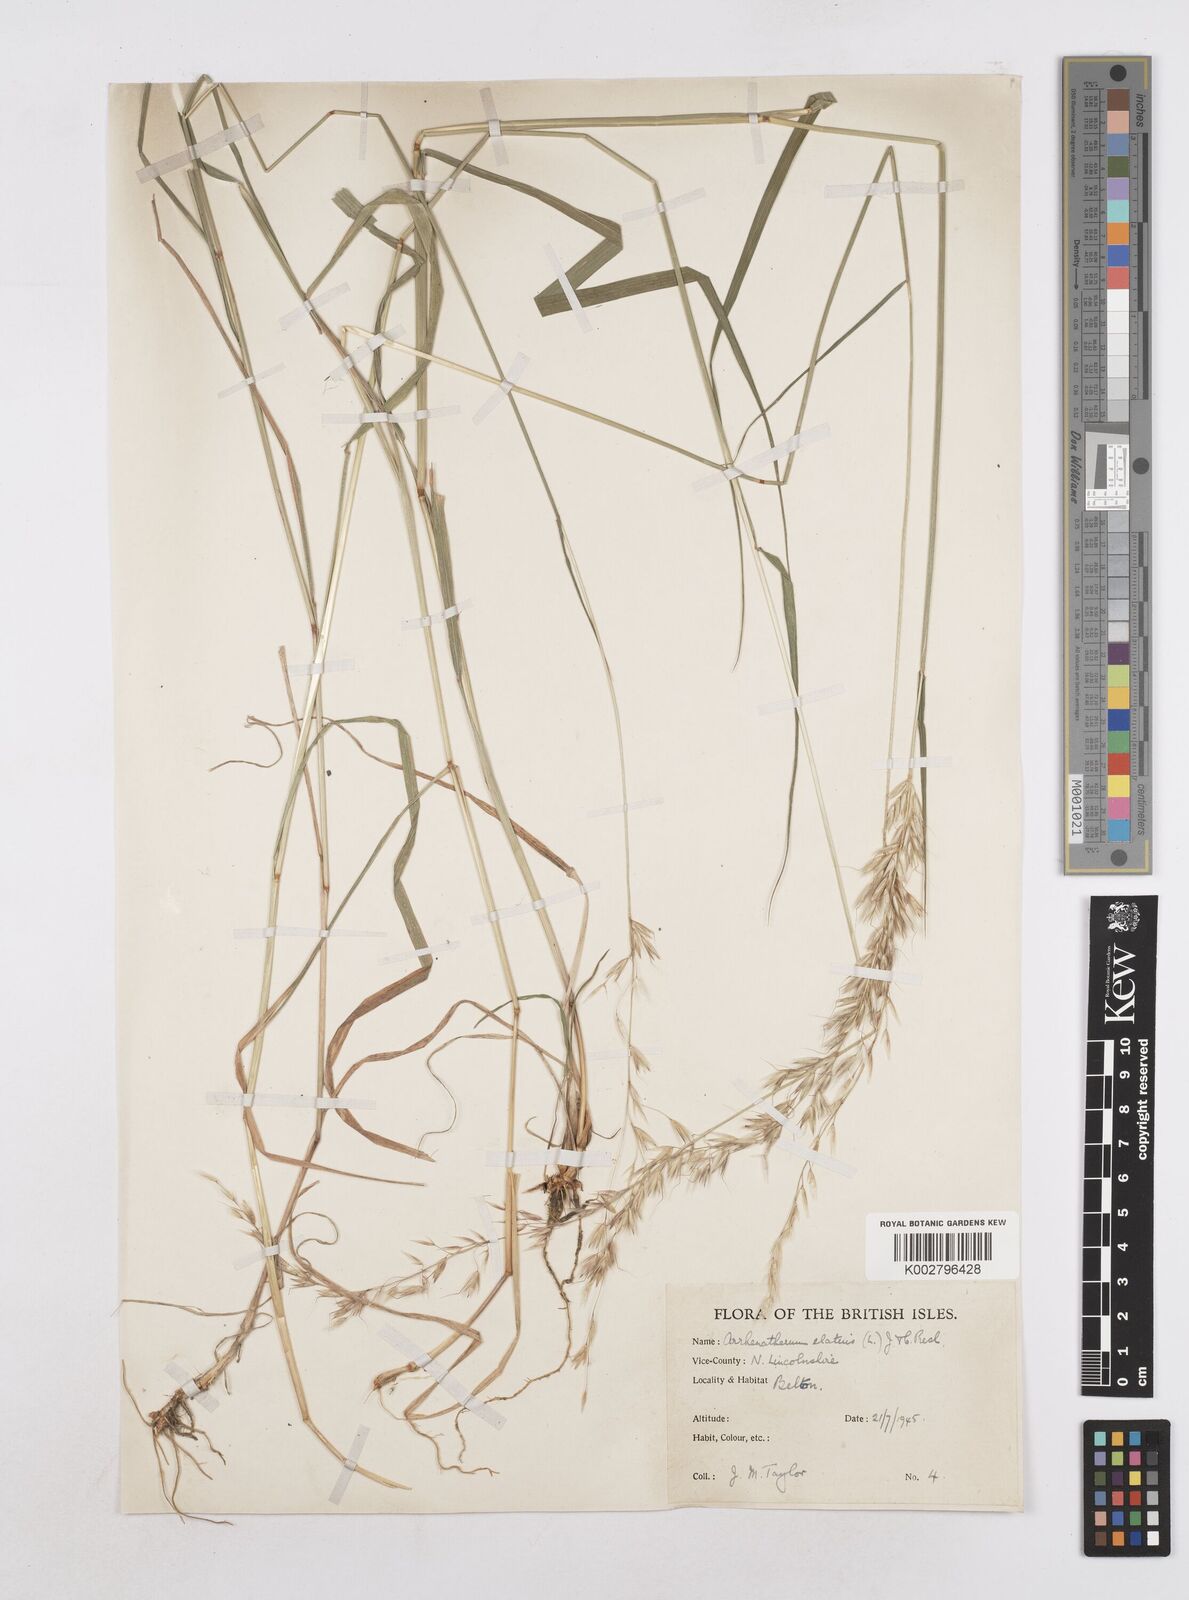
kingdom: Plantae
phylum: Tracheophyta
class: Liliopsida
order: Poales
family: Poaceae
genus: Arrhenatherum
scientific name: Arrhenatherum elatius
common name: Tall oatgrass
